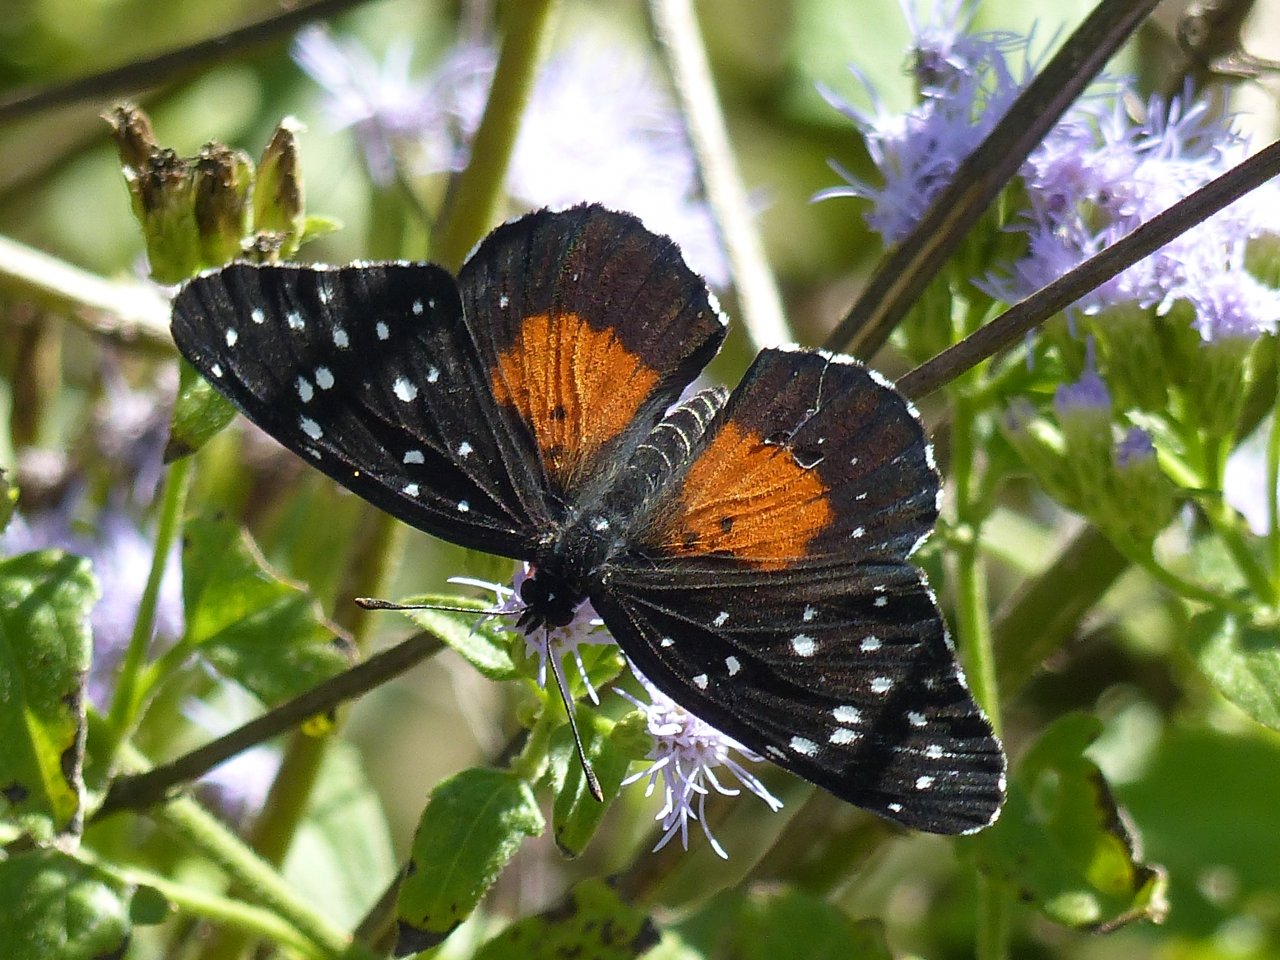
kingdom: Animalia
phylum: Arthropoda
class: Insecta
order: Lepidoptera
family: Nymphalidae
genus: Chlosyne
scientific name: Chlosyne janais
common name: Crimson Patch
